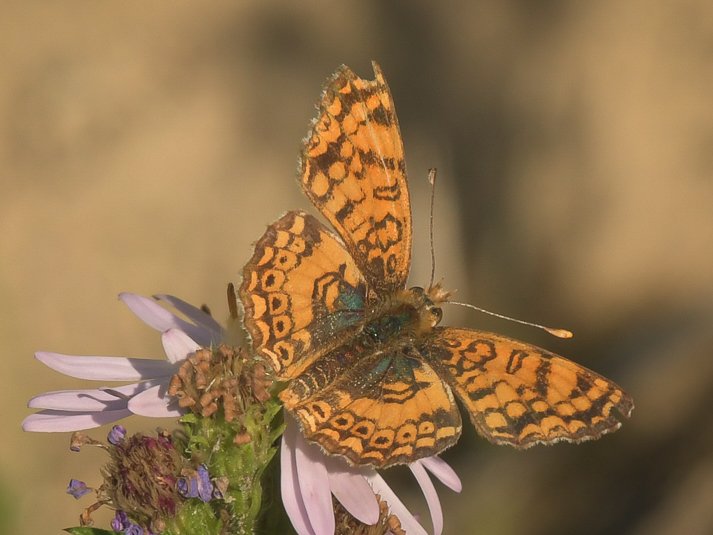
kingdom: Animalia
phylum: Arthropoda
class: Insecta
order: Lepidoptera
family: Nymphalidae
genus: Eresia
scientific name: Eresia aveyrona
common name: Mylitta Crescent
